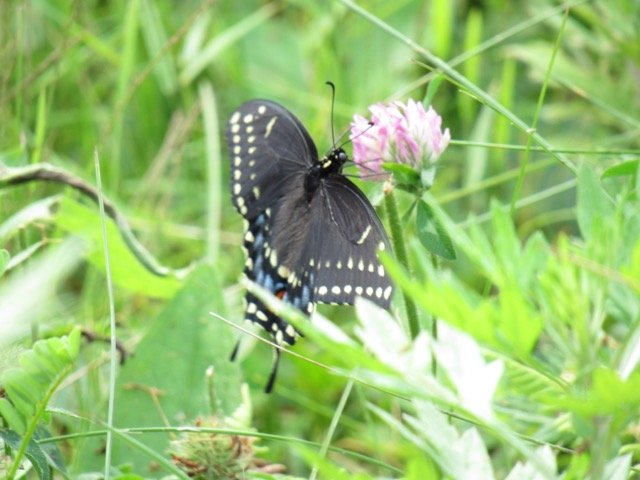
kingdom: Animalia
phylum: Arthropoda
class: Insecta
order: Lepidoptera
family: Papilionidae
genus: Papilio
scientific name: Papilio polyxenes
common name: Black Swallowtail
